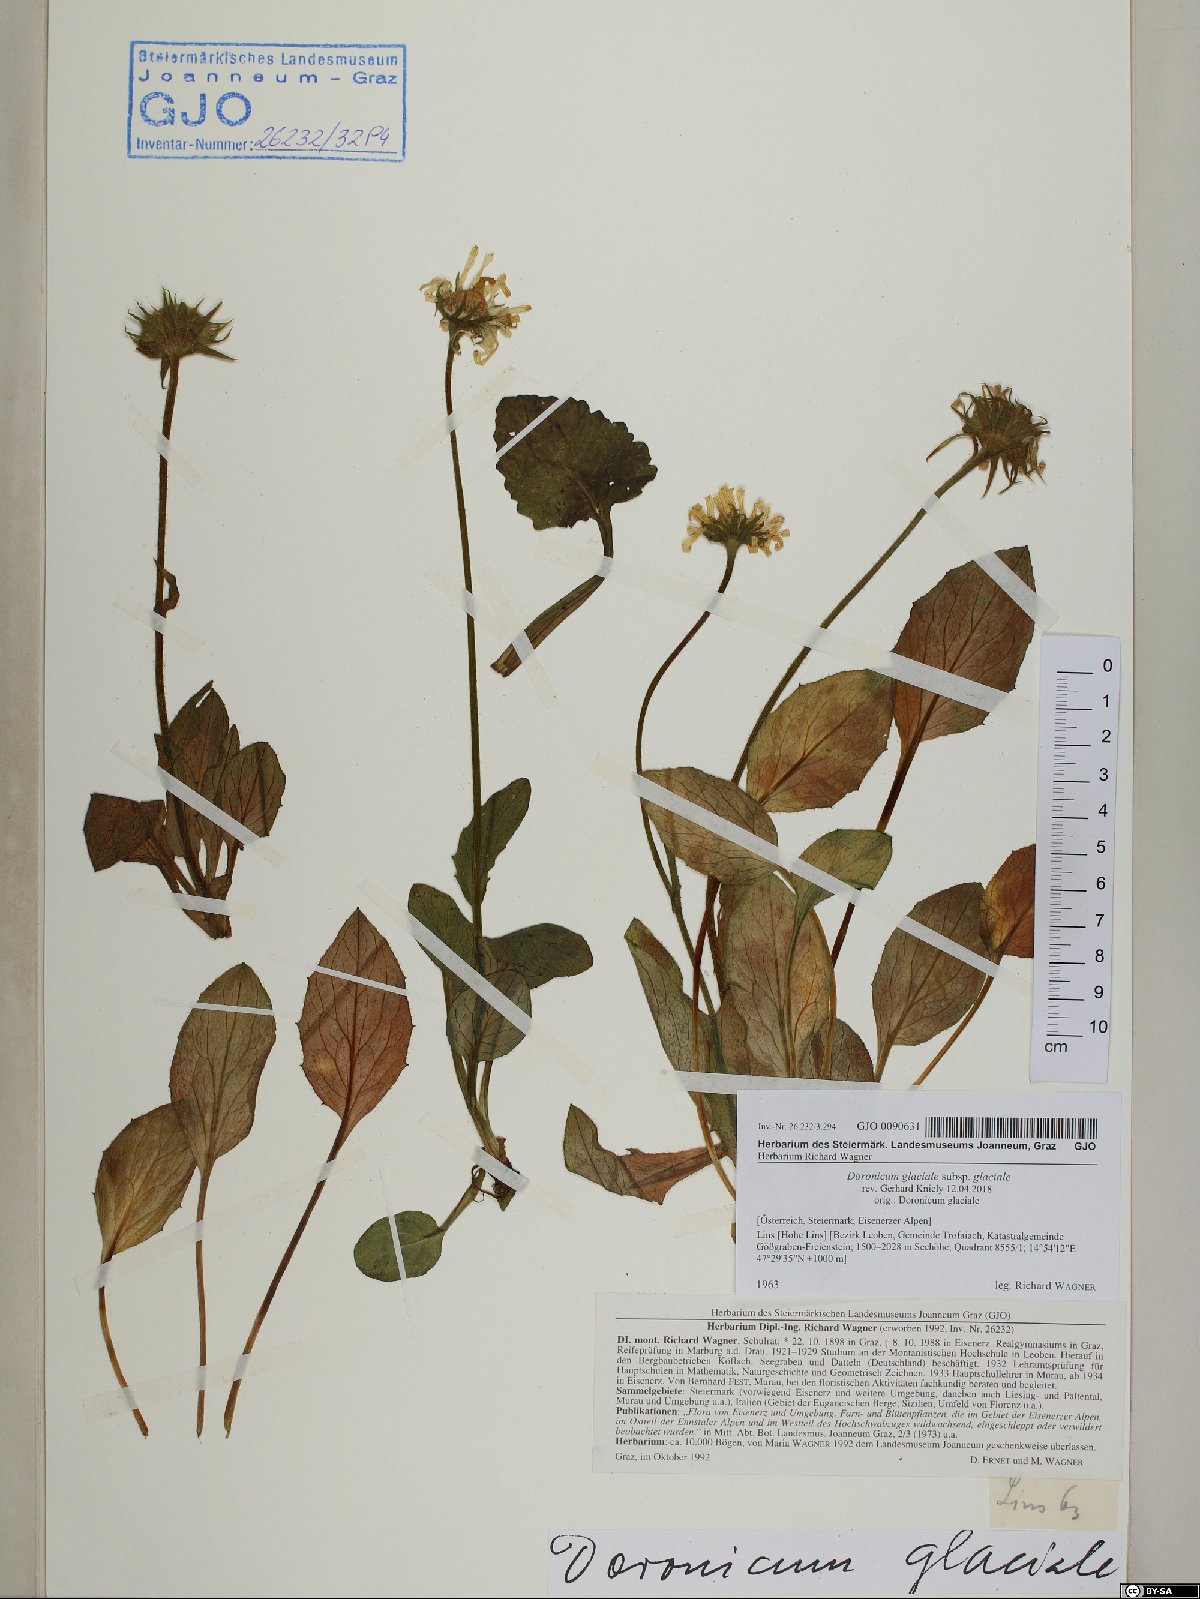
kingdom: Plantae
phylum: Tracheophyta
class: Magnoliopsida
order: Asterales
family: Asteraceae
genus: Doronicum
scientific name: Doronicum glaciale
